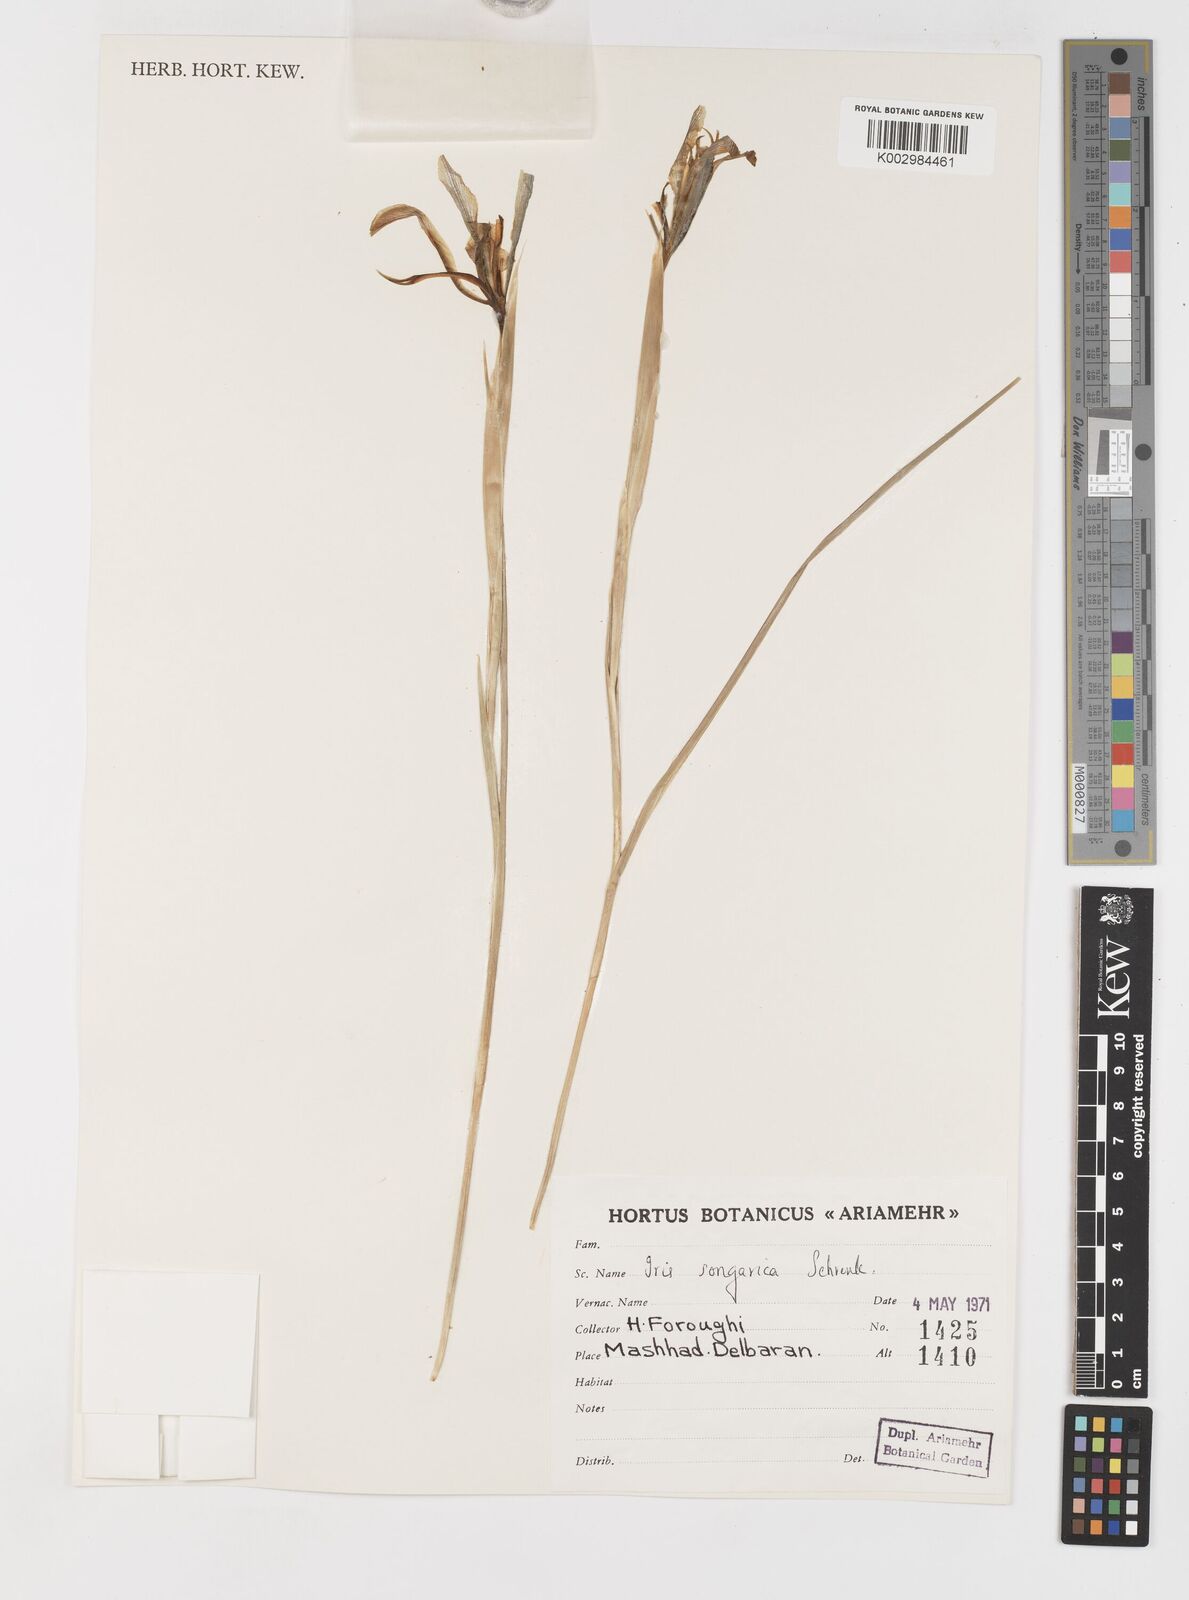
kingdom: Plantae
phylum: Tracheophyta
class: Liliopsida
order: Asparagales
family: Iridaceae
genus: Iris
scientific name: Iris songarica
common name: Songar iris
